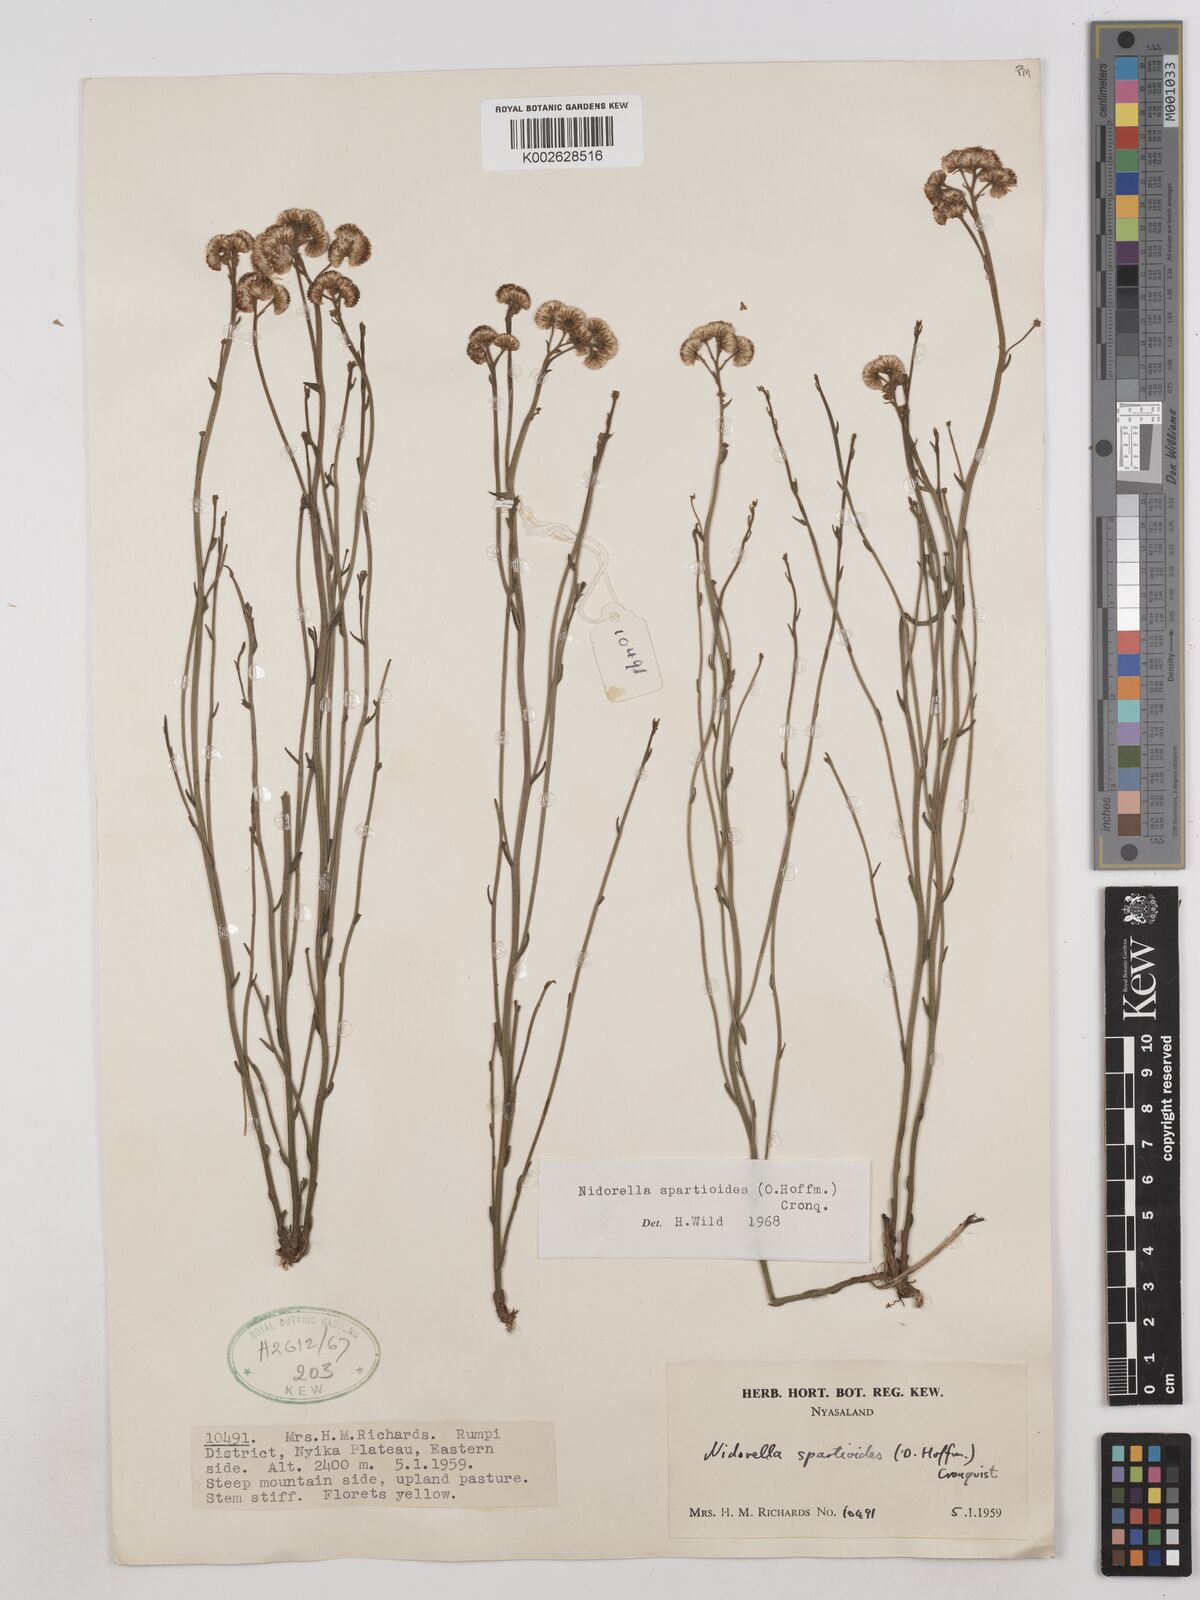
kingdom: Plantae
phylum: Tracheophyta
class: Magnoliopsida
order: Asterales
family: Asteraceae
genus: Nidorella
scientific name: Nidorella spartioides
